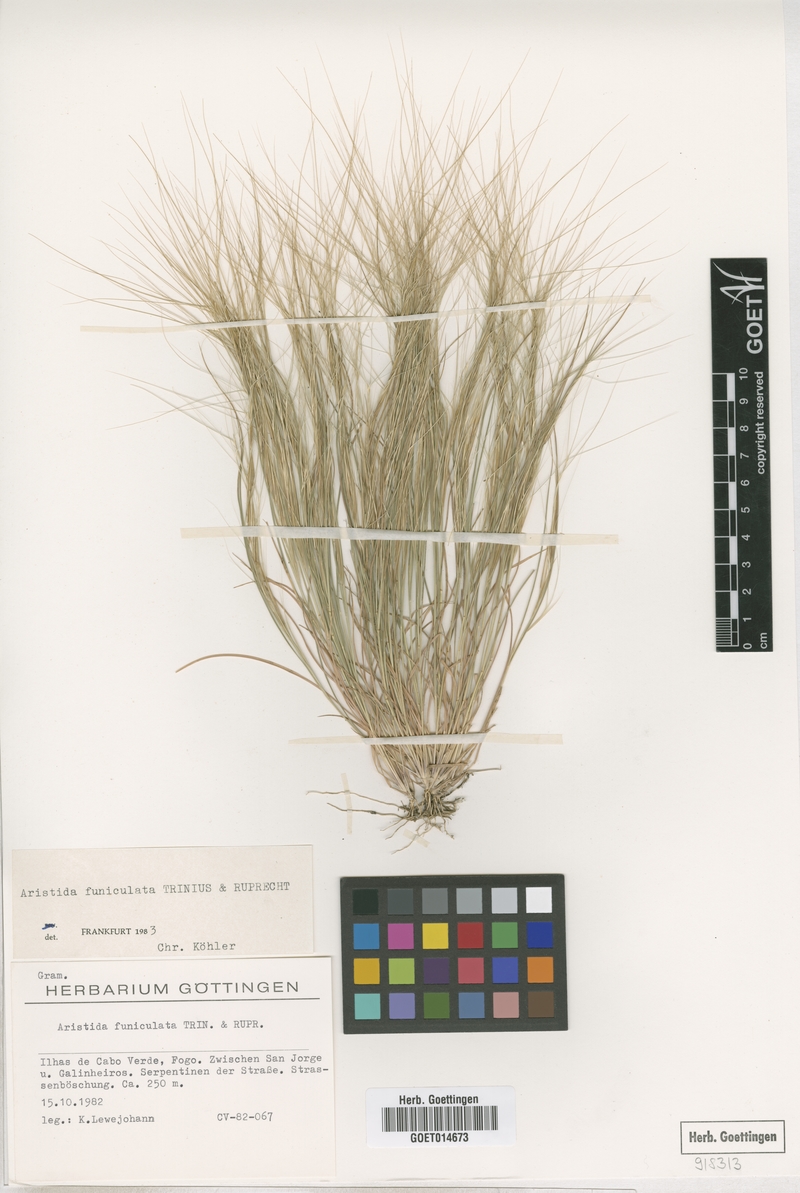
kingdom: Plantae
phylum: Tracheophyta
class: Liliopsida
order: Poales
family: Poaceae
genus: Aristida
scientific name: Aristida funiculata
